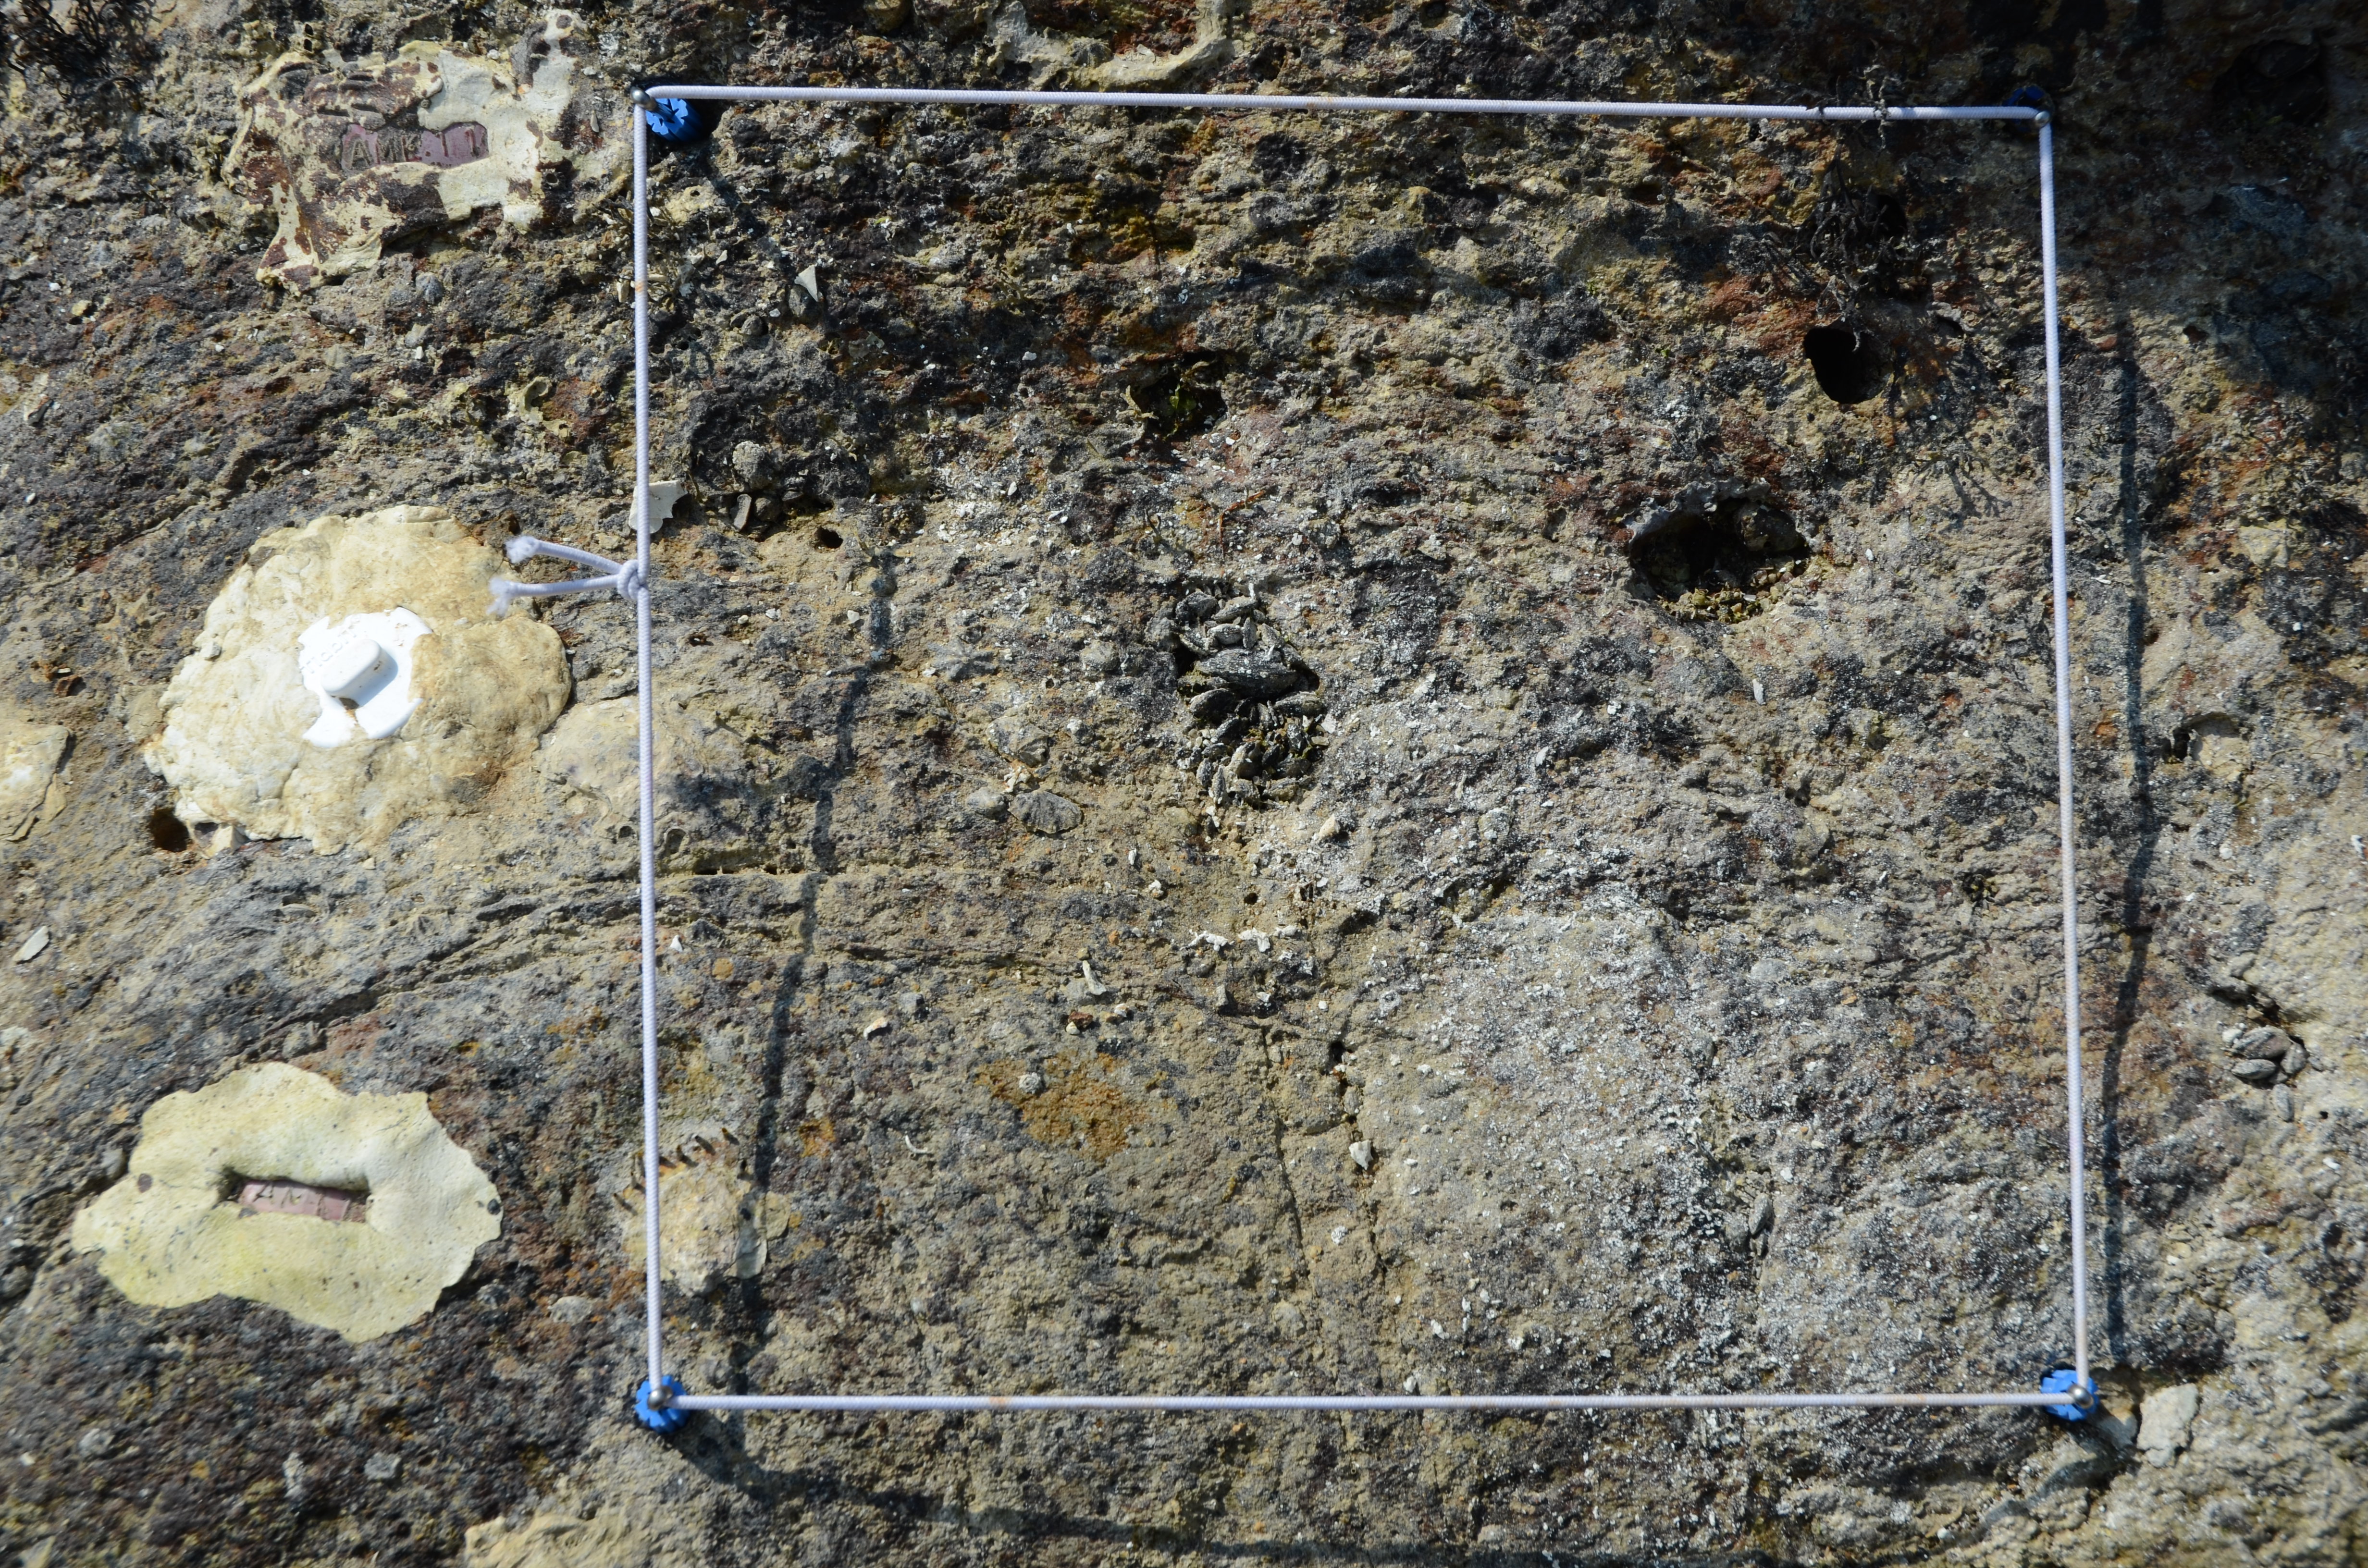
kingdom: Chromista
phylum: Ochrophyta
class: Phaeophyceae
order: Ishigeales
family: Ishigeaceae
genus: Ishige
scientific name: Ishige okamurae
